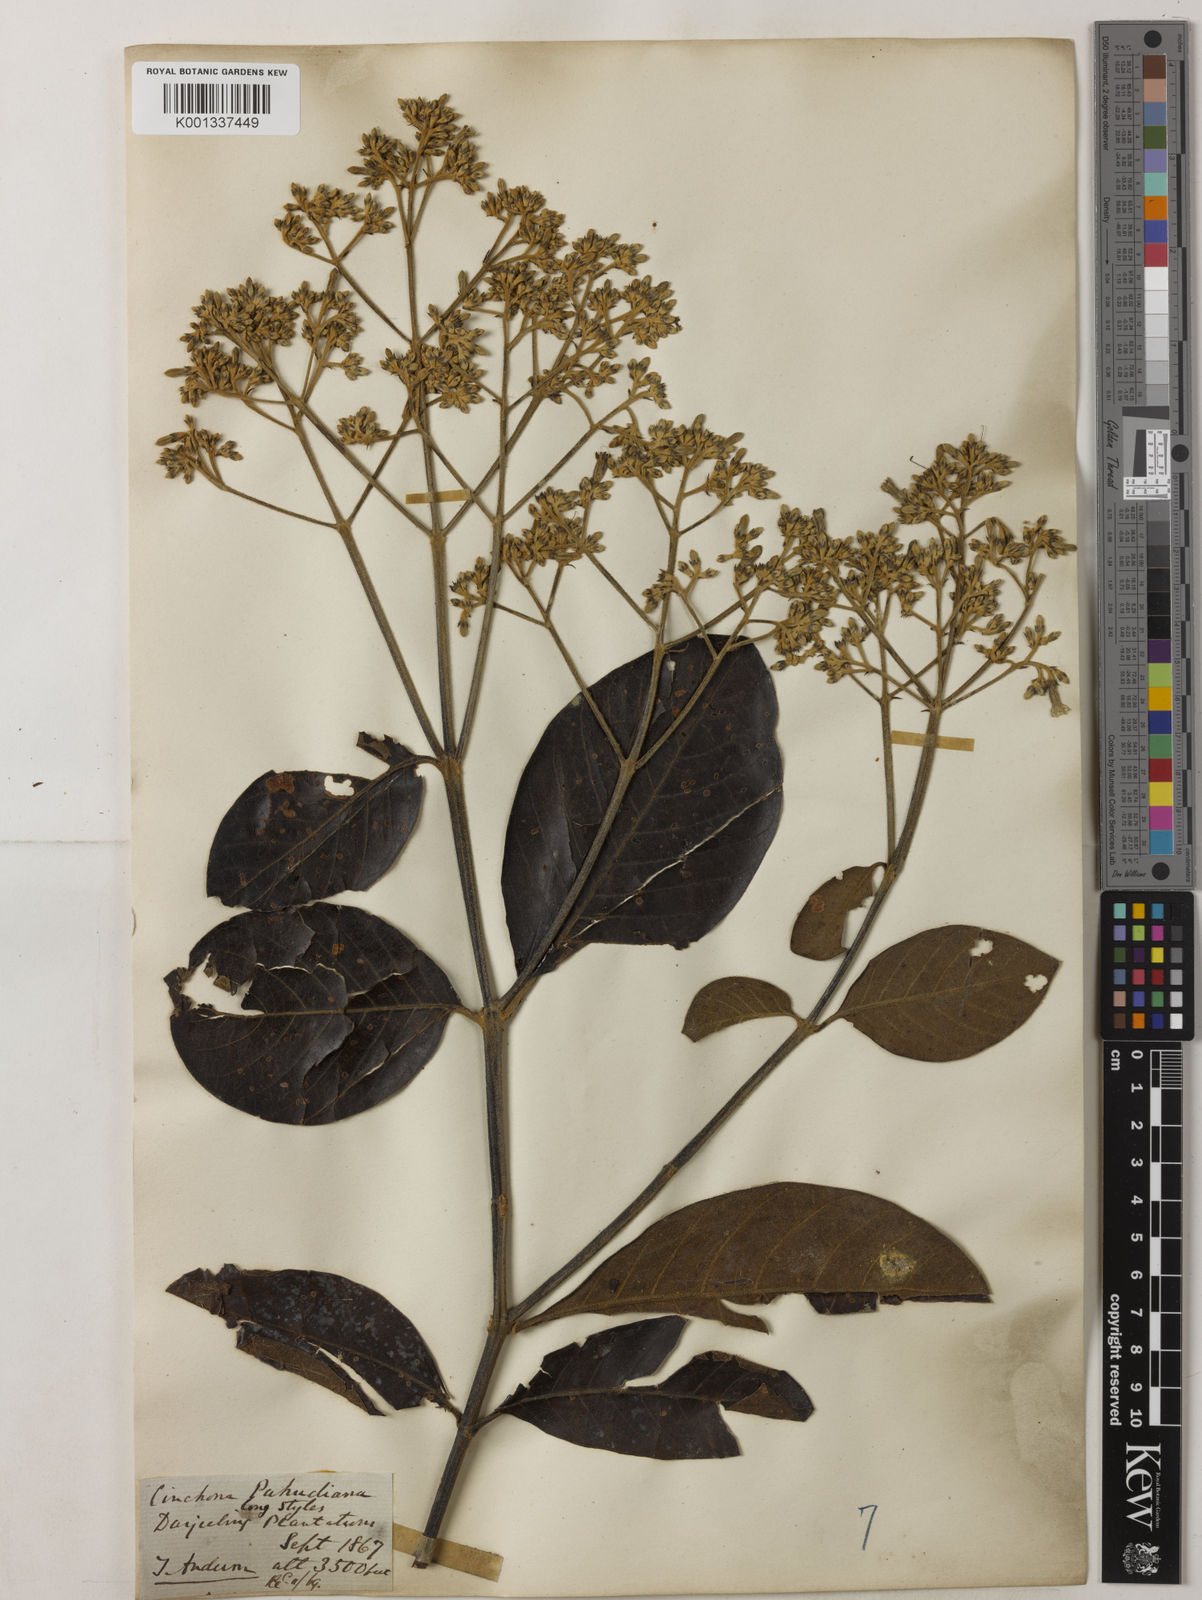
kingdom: Plantae
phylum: Tracheophyta
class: Magnoliopsida
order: Gentianales
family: Rubiaceae
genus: Cinchona
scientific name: Cinchona calisaya
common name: Ledgerbark
